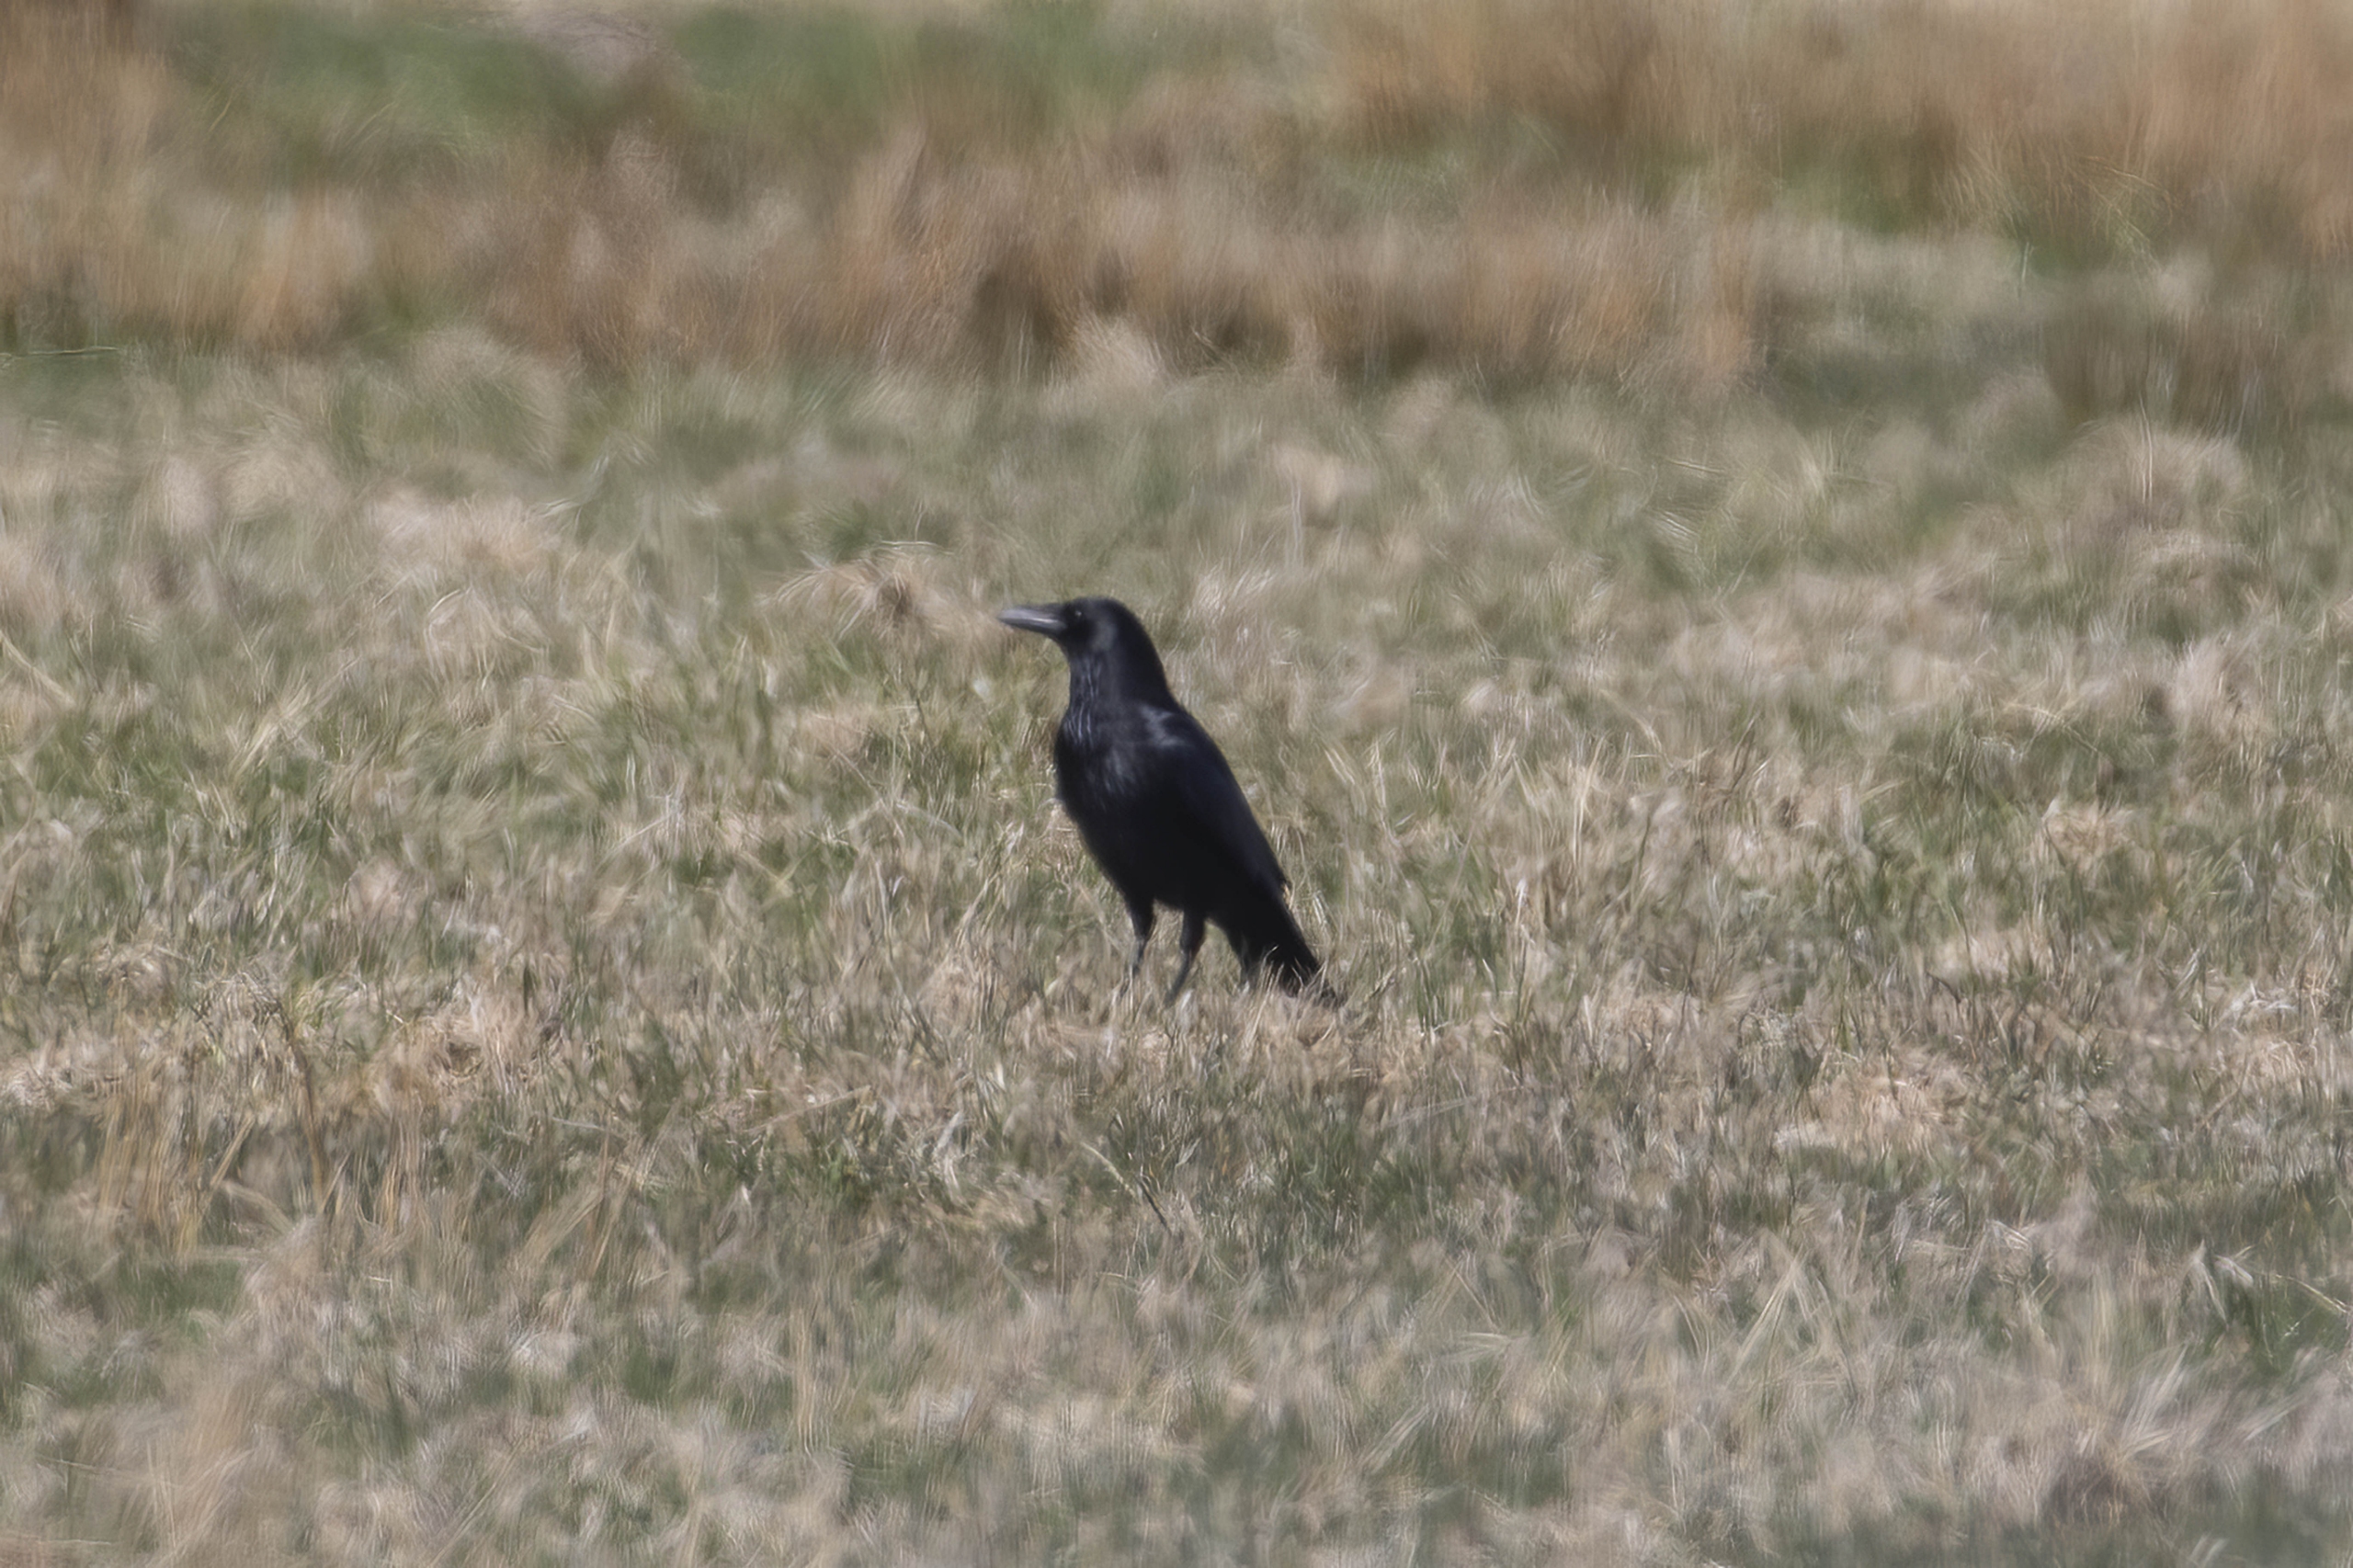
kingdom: Animalia
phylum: Chordata
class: Aves
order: Passeriformes
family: Corvidae
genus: Corvus
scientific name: Corvus corone
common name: Sortkrage
